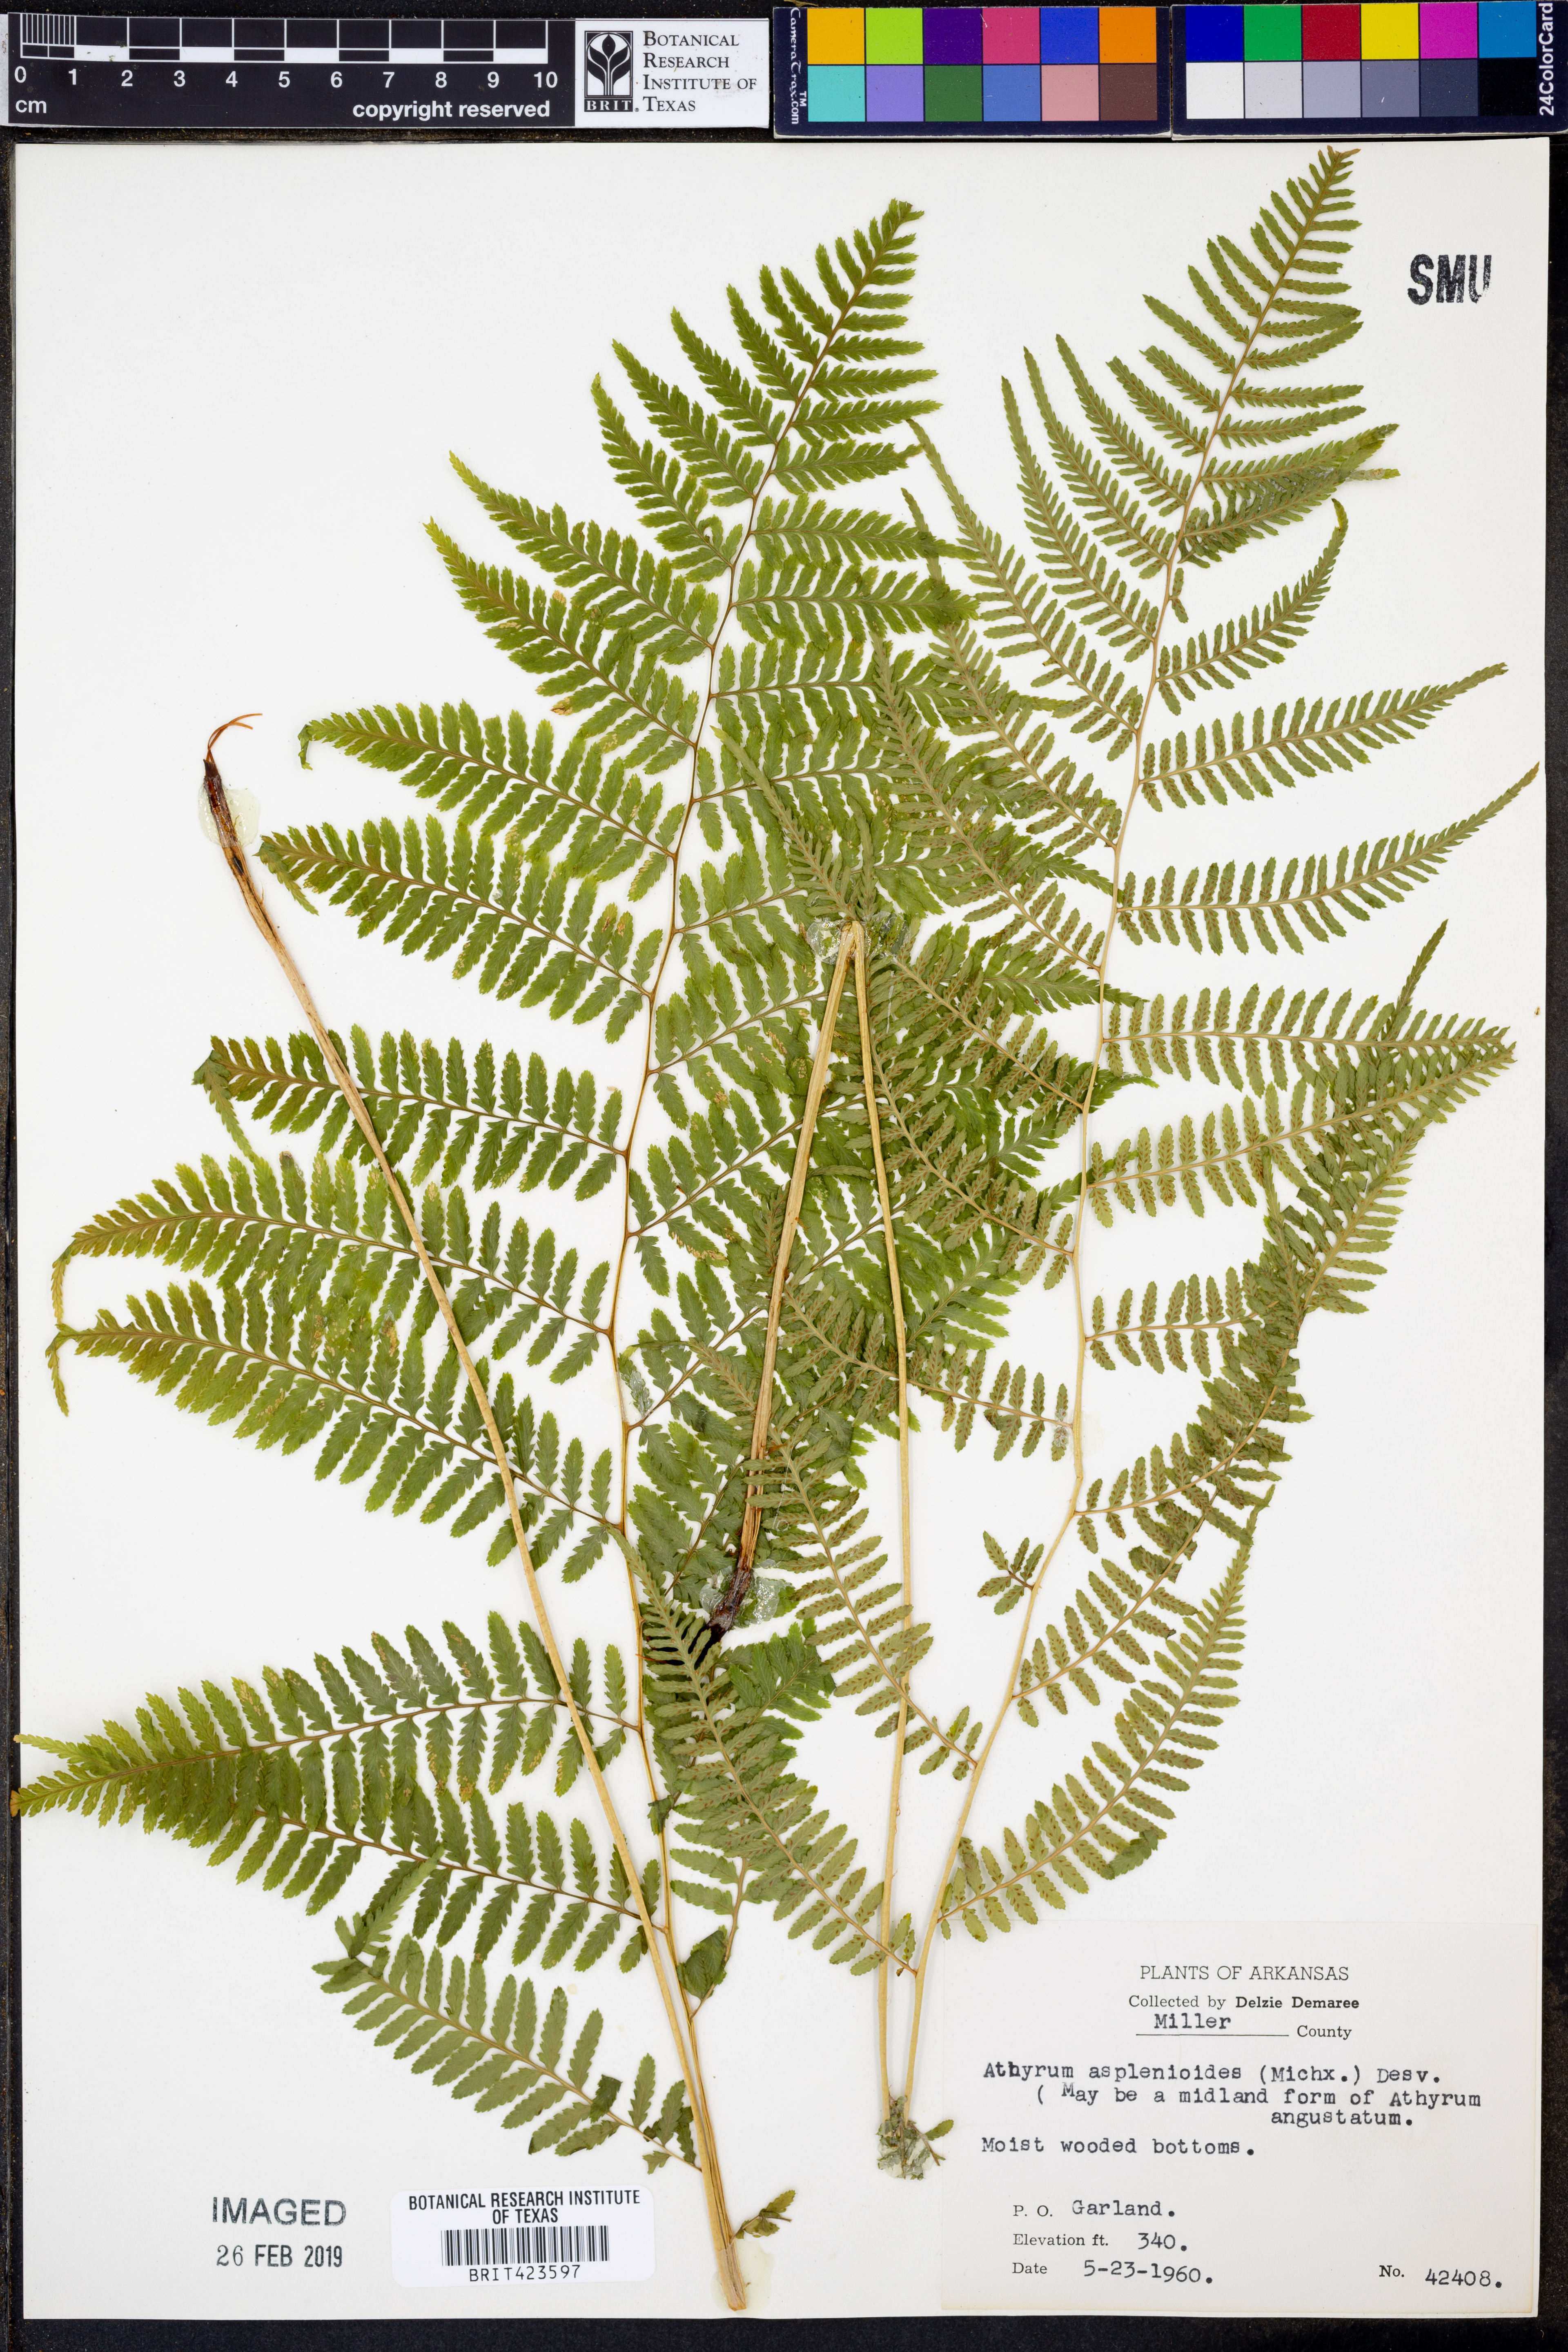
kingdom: Plantae
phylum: Tracheophyta
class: Polypodiopsida
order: Polypodiales
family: Athyriaceae
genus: Athyrium
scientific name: Athyrium asplenioides
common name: Southern lady fern
